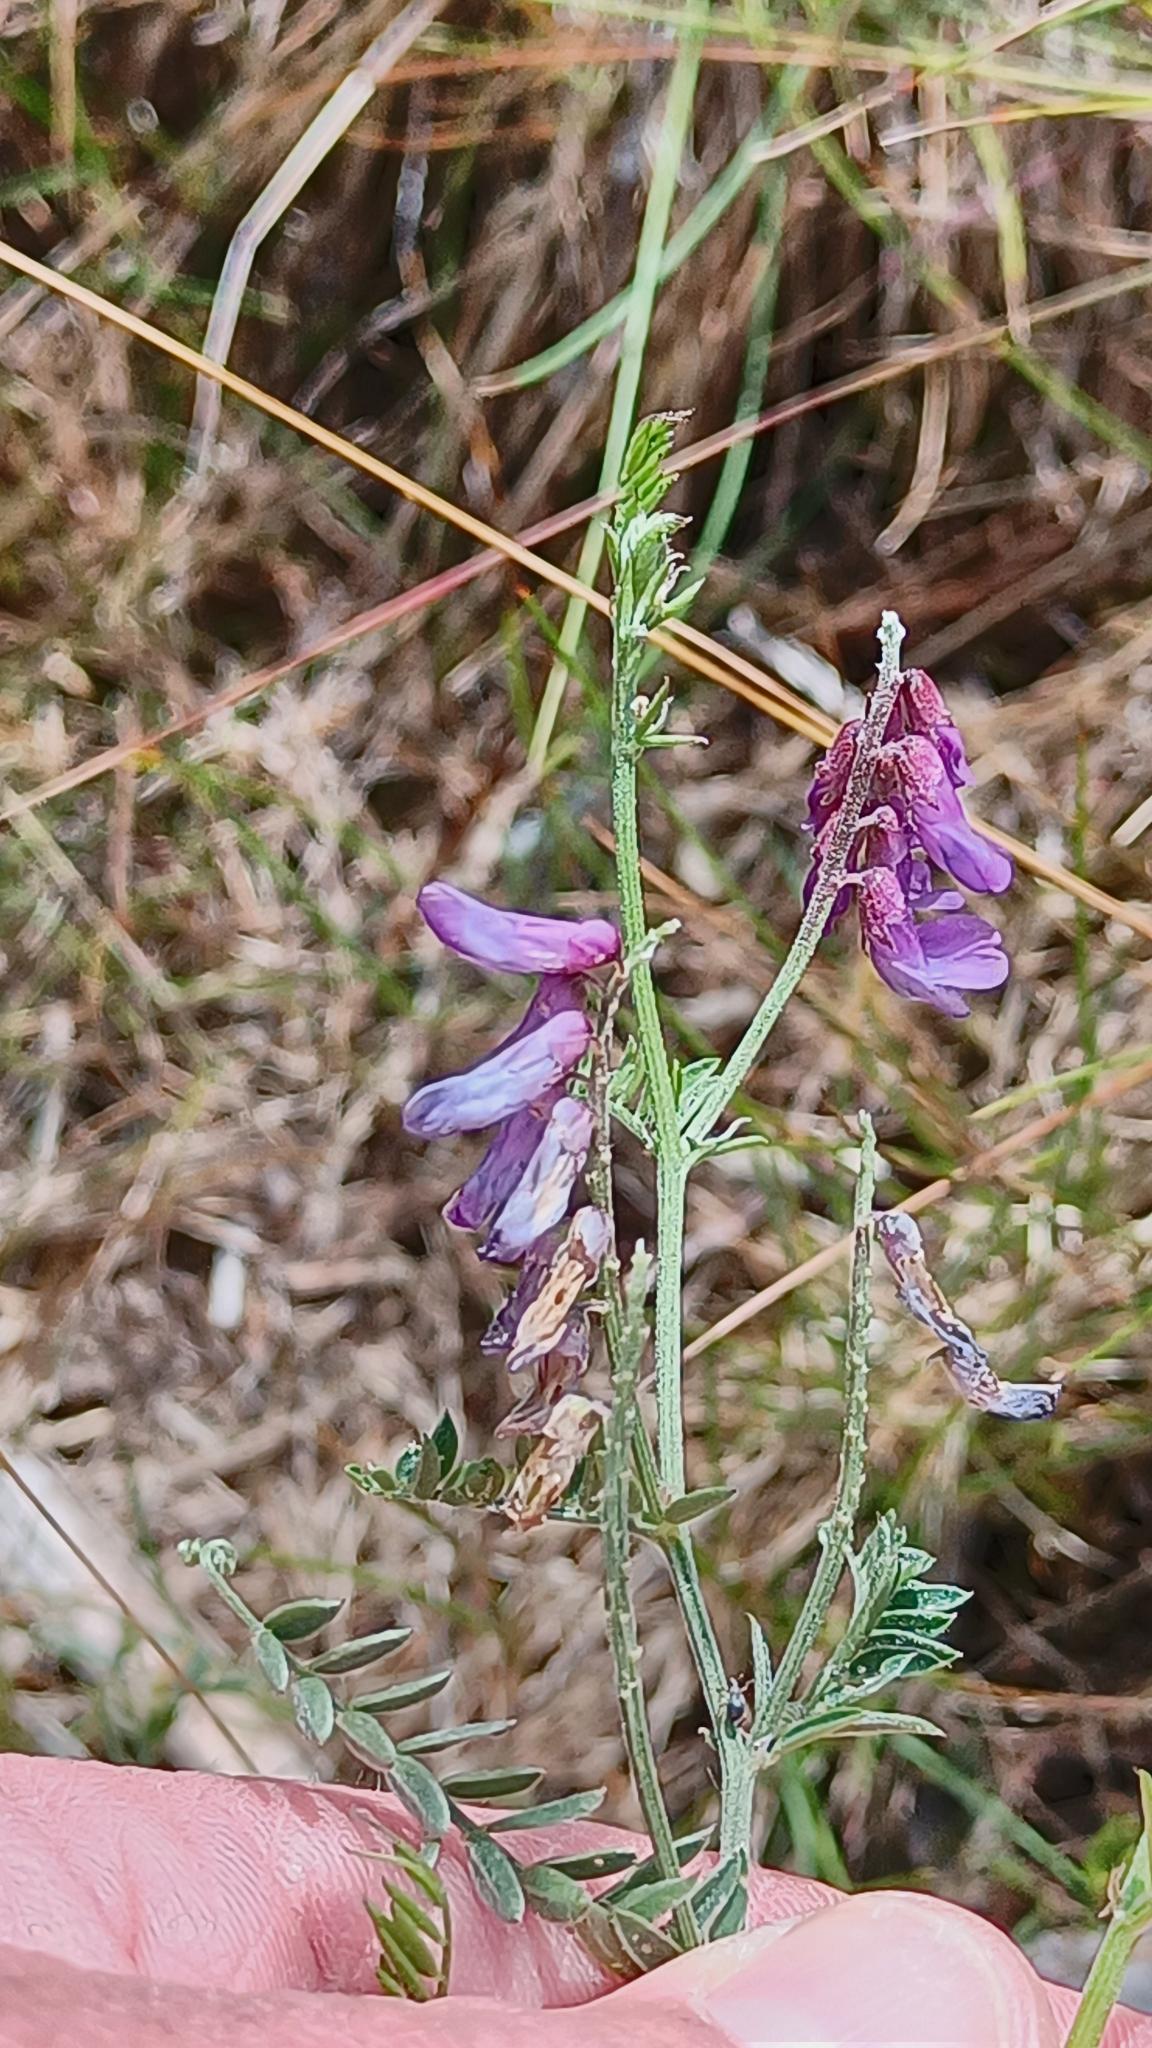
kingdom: Plantae
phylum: Tracheophyta
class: Magnoliopsida
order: Fabales
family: Fabaceae
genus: Vicia
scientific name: Vicia cracca
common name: Muse-vikke
